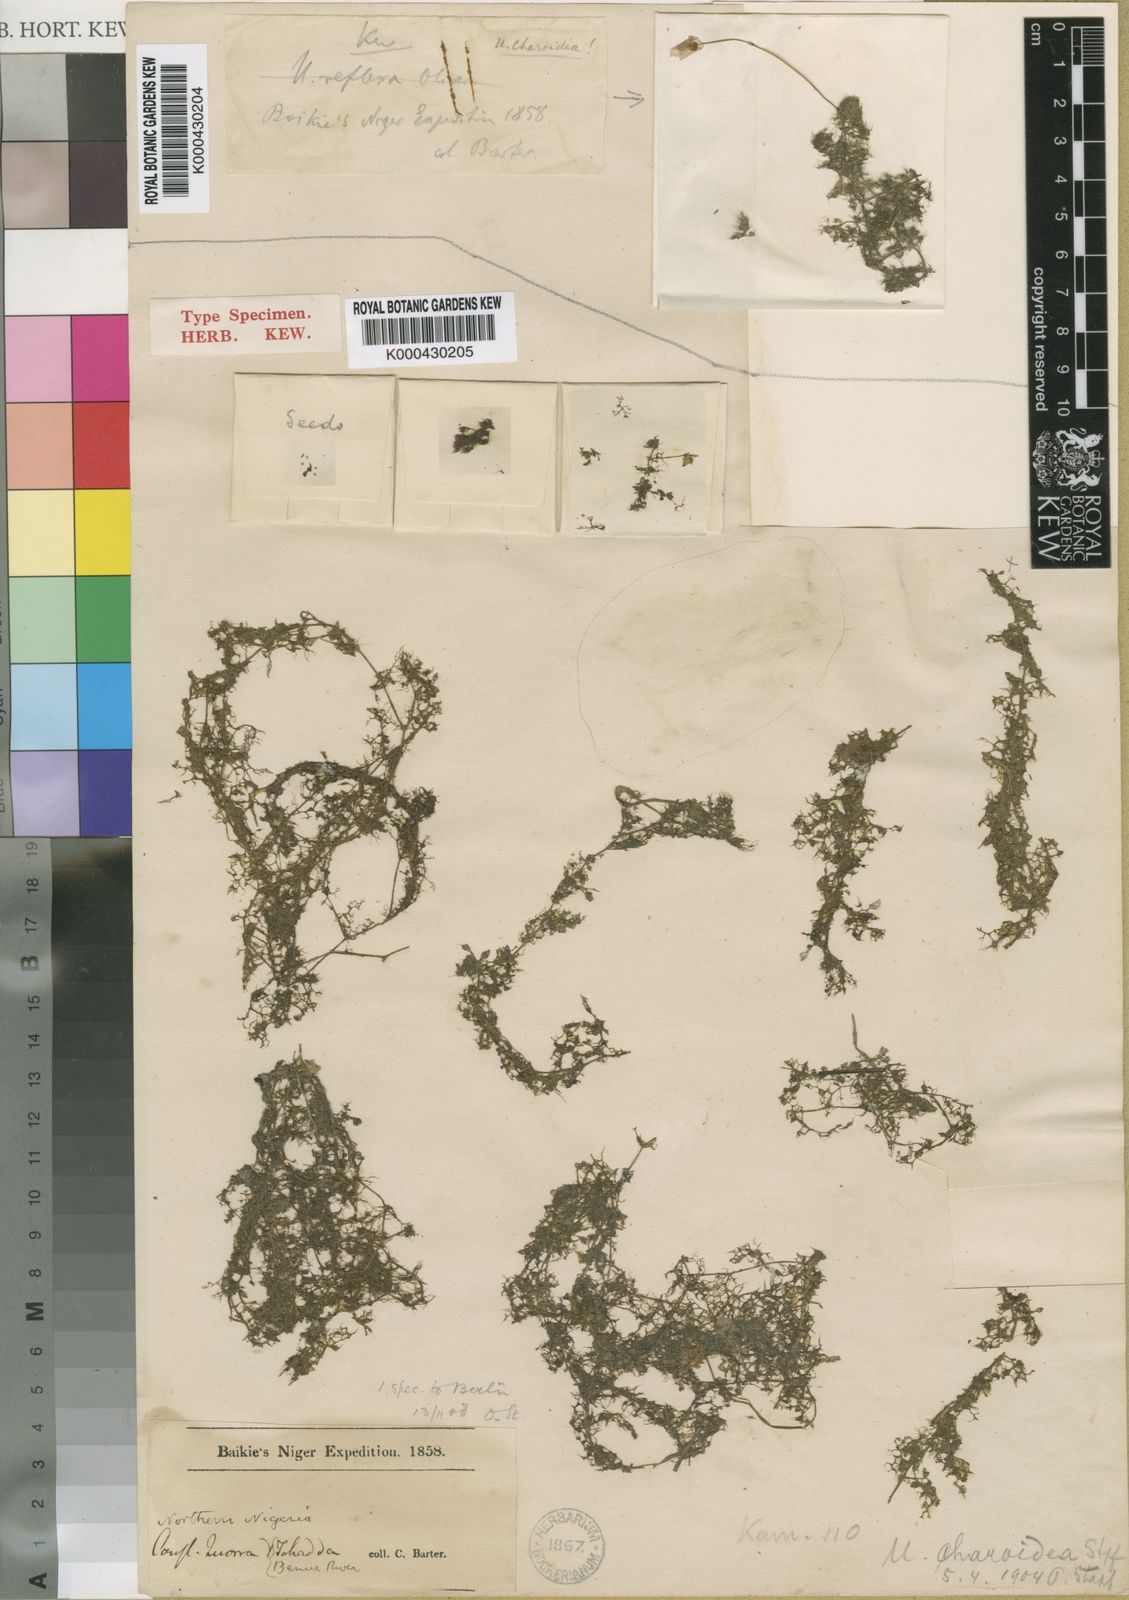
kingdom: Plantae
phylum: Tracheophyta
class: Magnoliopsida
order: Lamiales
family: Lentibulariaceae
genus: Utricularia
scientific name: Utricularia reflexa
